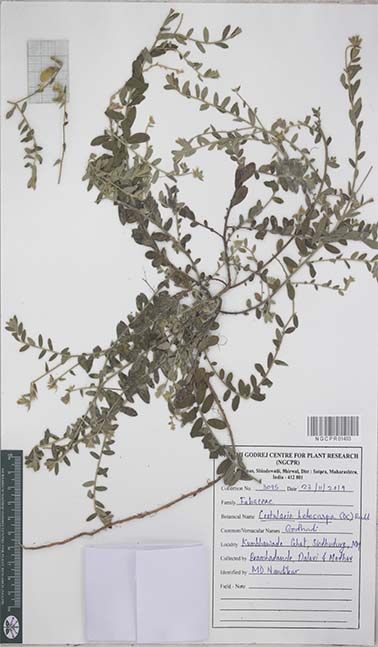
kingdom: Plantae
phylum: Tracheophyta
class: Magnoliopsida
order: Fabales
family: Fabaceae
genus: Crotalaria
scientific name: Crotalaria hebecarpa
